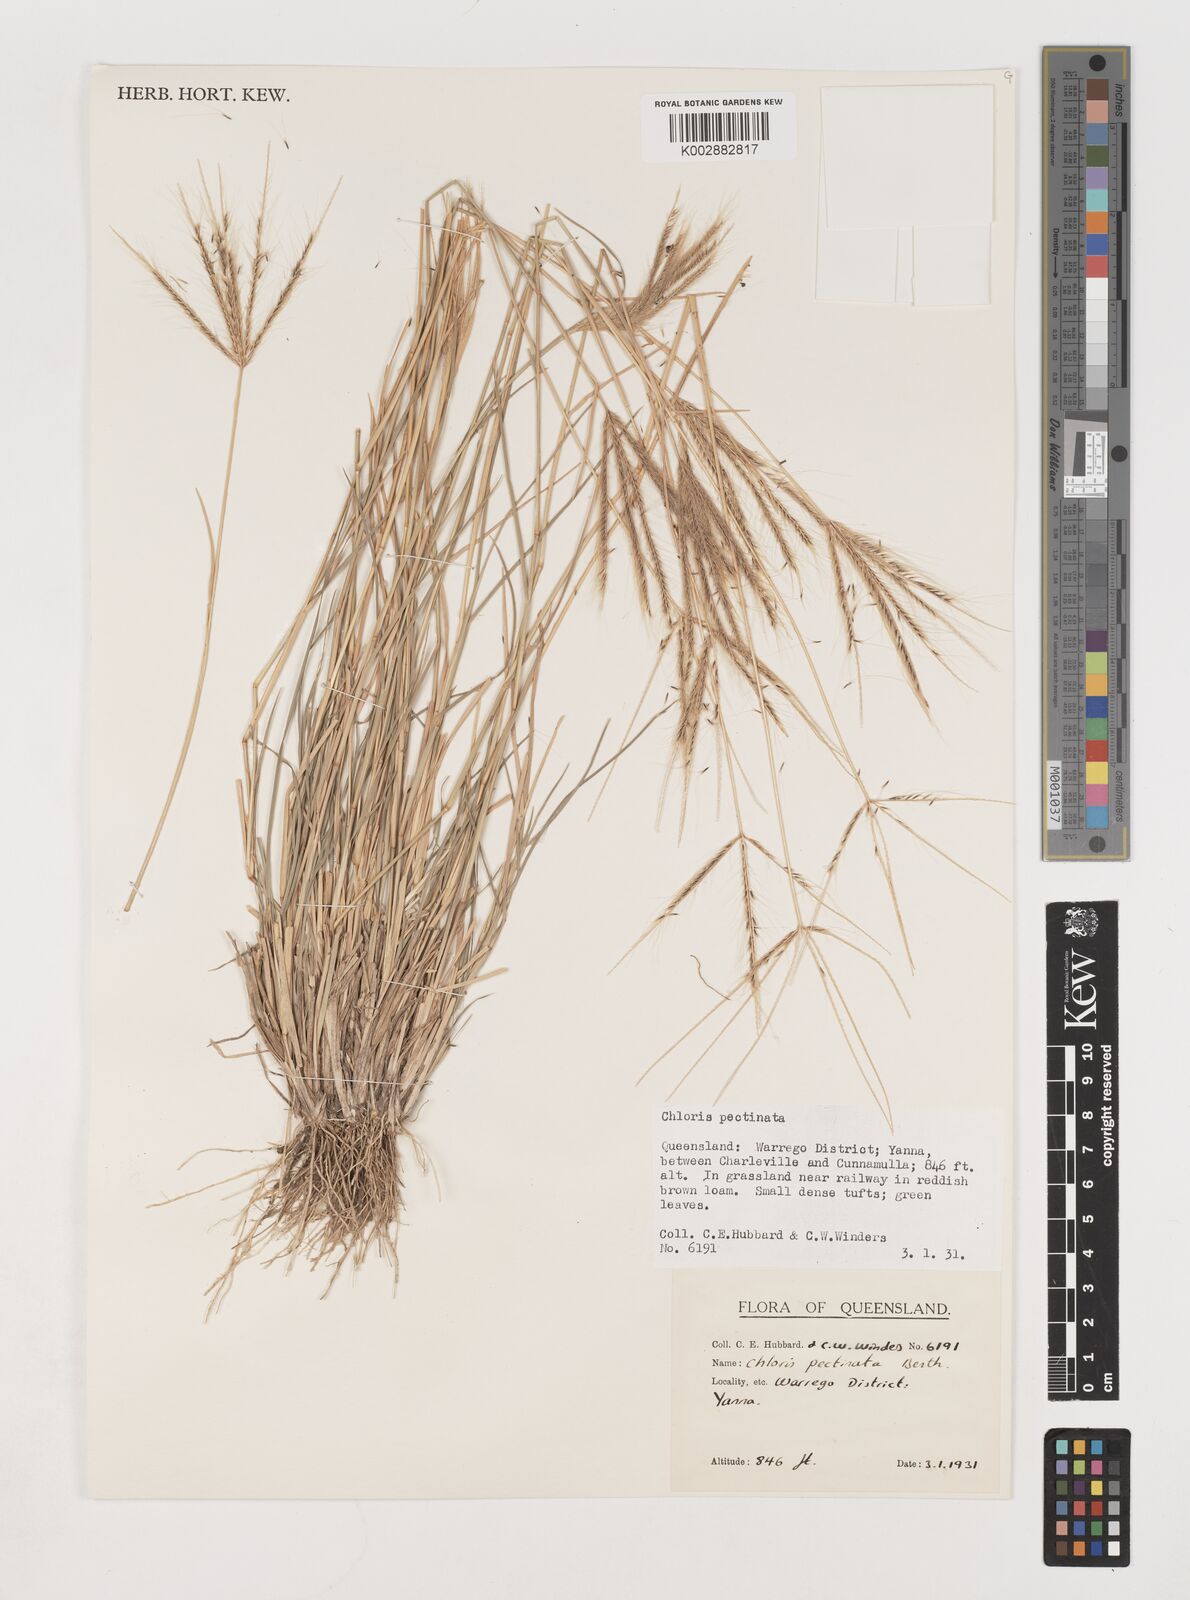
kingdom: Plantae
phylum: Tracheophyta
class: Liliopsida
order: Poales
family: Poaceae
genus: Chloris
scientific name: Chloris pectinata
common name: Comb windmill grass
